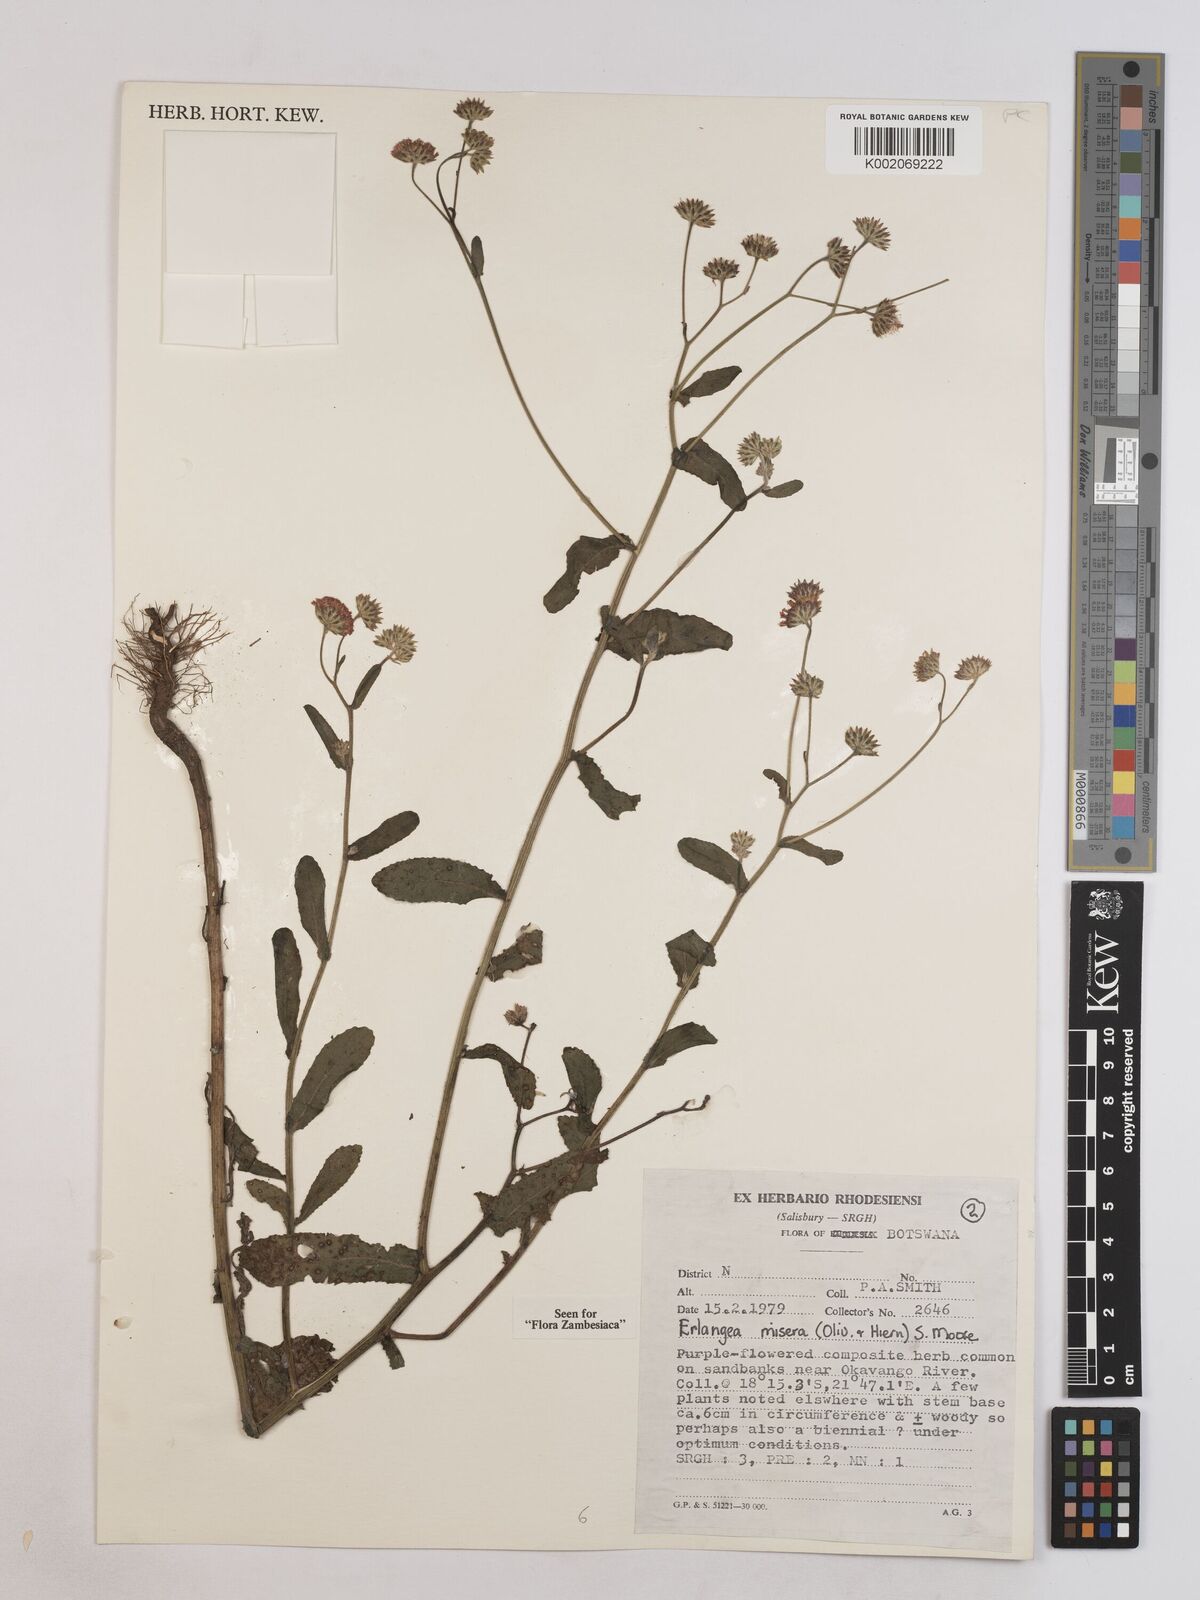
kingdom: Plantae
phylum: Tracheophyta
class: Magnoliopsida
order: Asterales
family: Asteraceae
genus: Erlangea
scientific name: Erlangea misera
